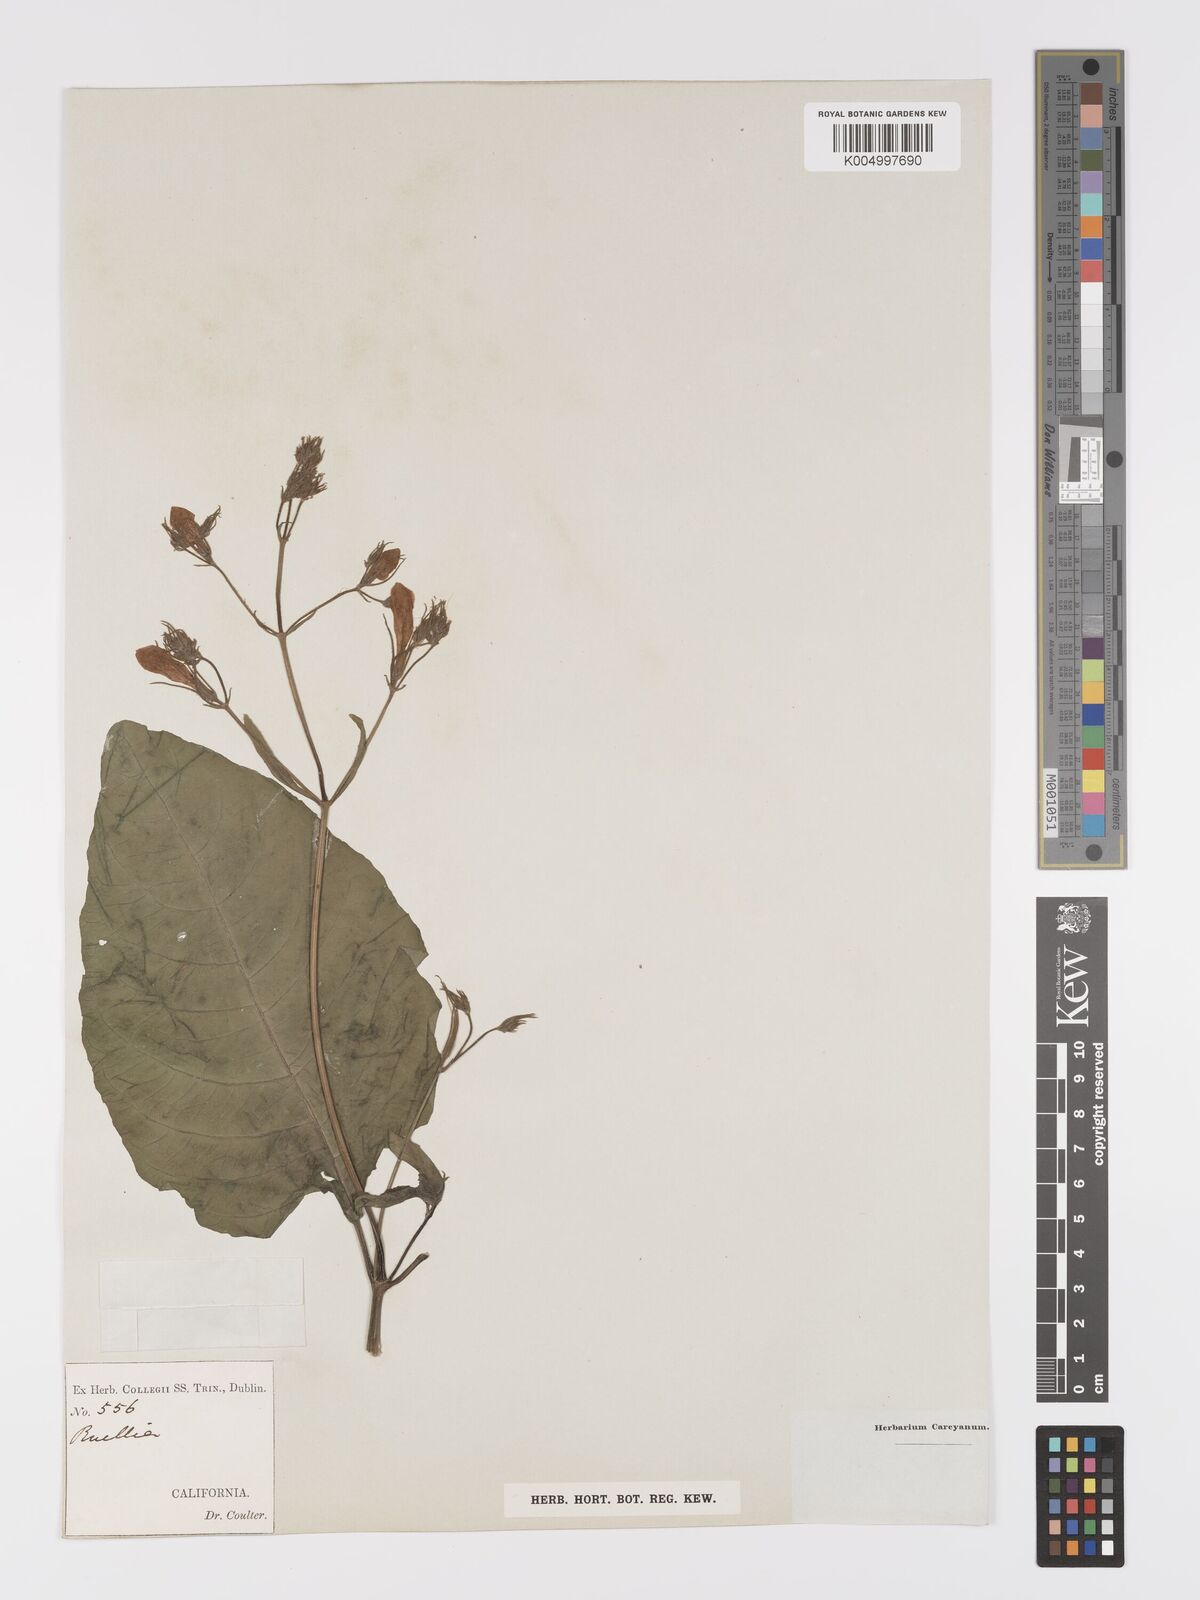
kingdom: Plantae
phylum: Tracheophyta
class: Magnoliopsida
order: Lamiales
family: Acanthaceae
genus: Ruellia
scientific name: Ruellia
